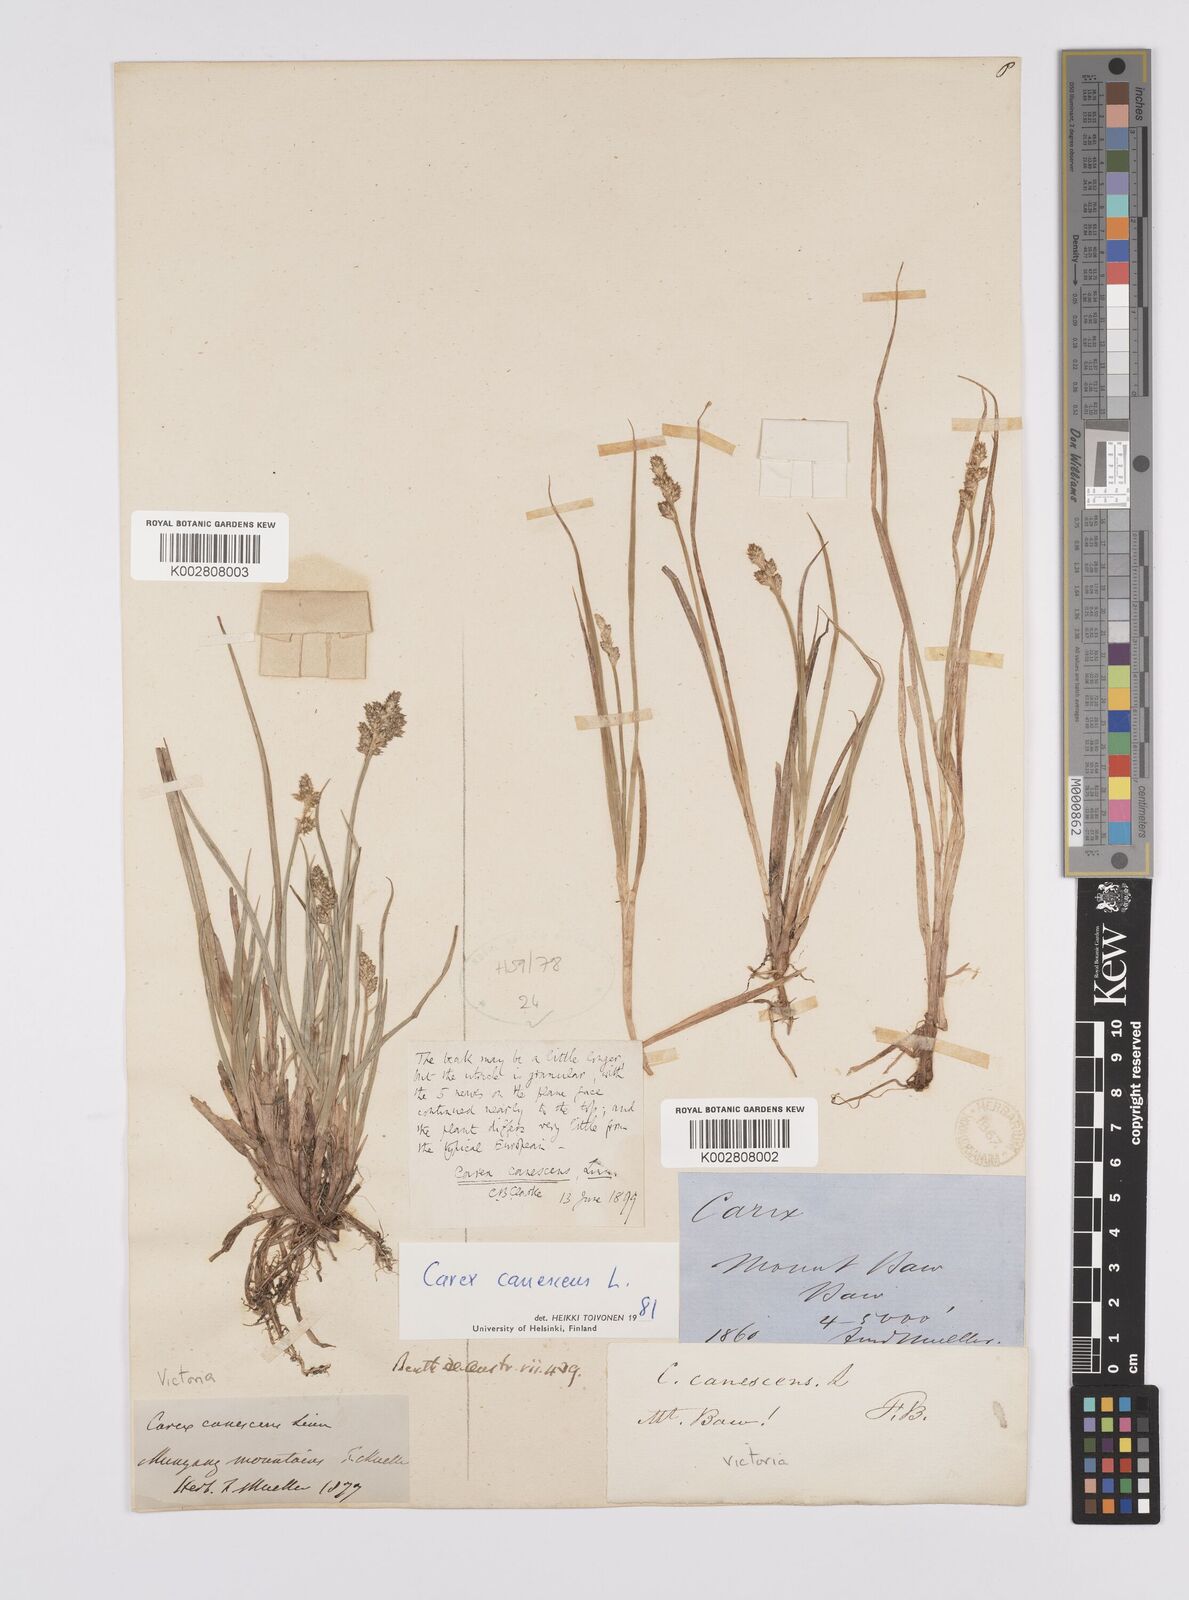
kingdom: Plantae
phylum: Tracheophyta
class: Liliopsida
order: Poales
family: Cyperaceae
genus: Carex
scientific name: Carex curta
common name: White sedge
